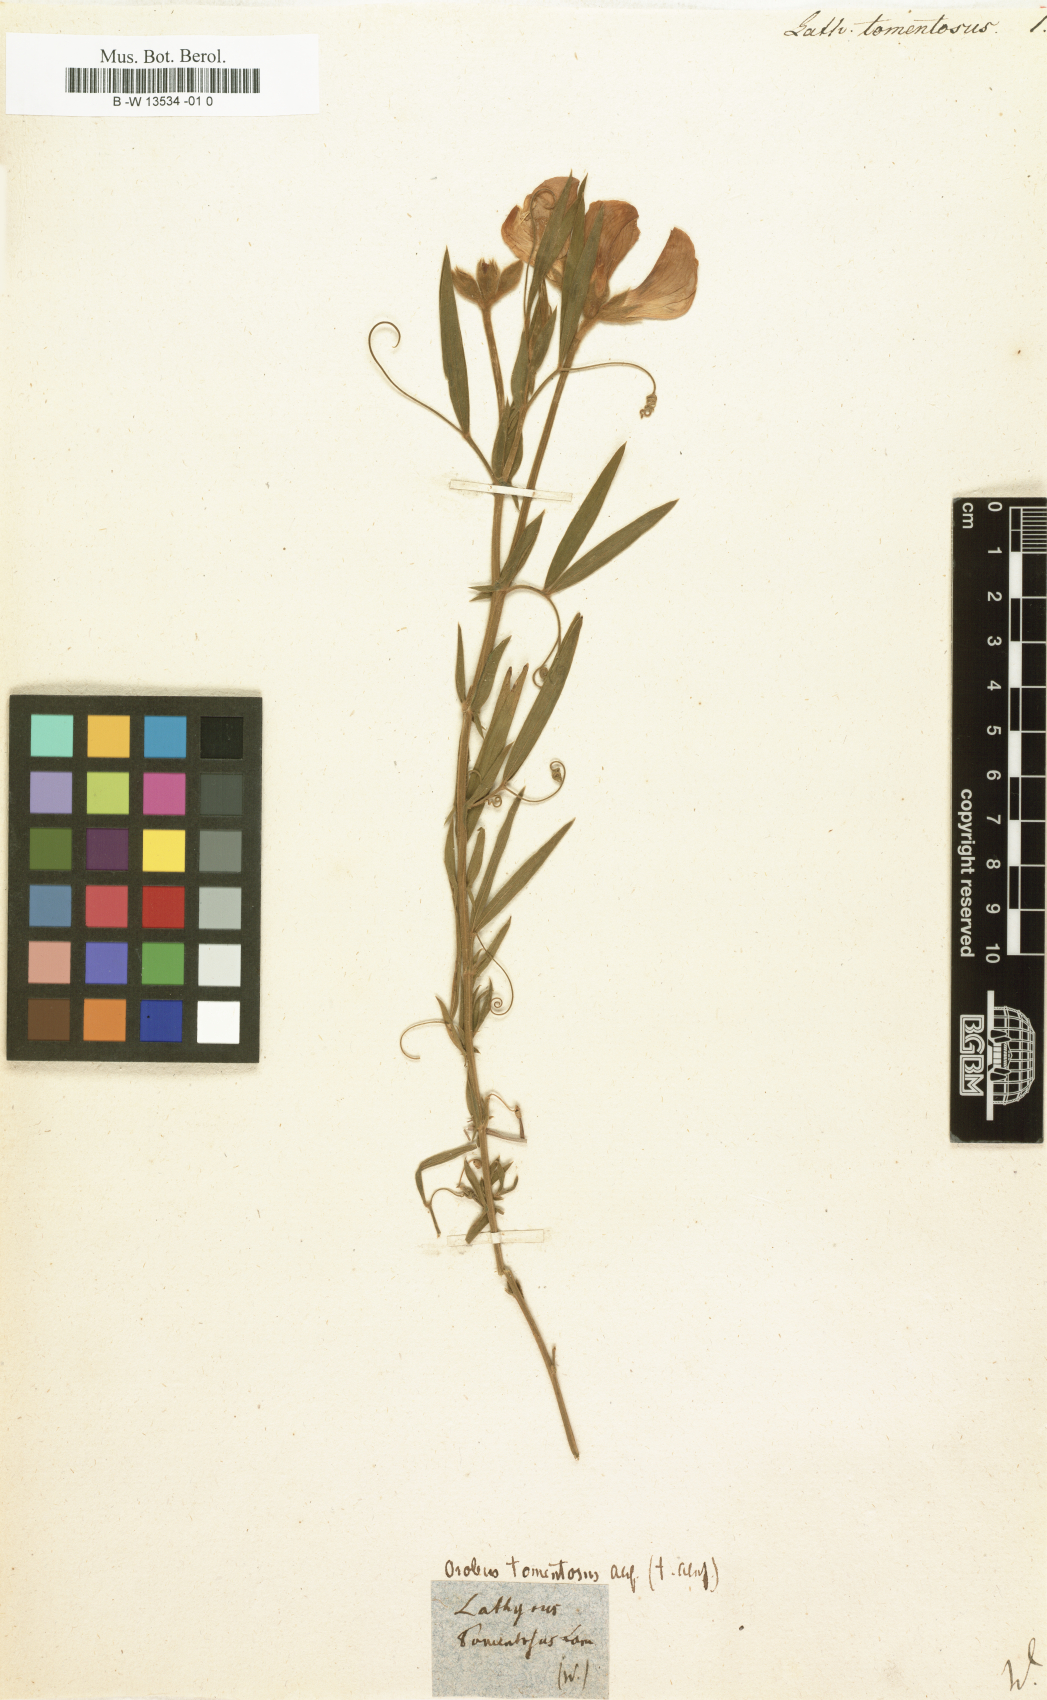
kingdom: Plantae
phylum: Tracheophyta
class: Magnoliopsida
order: Fabales
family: Fabaceae
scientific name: Fabaceae
